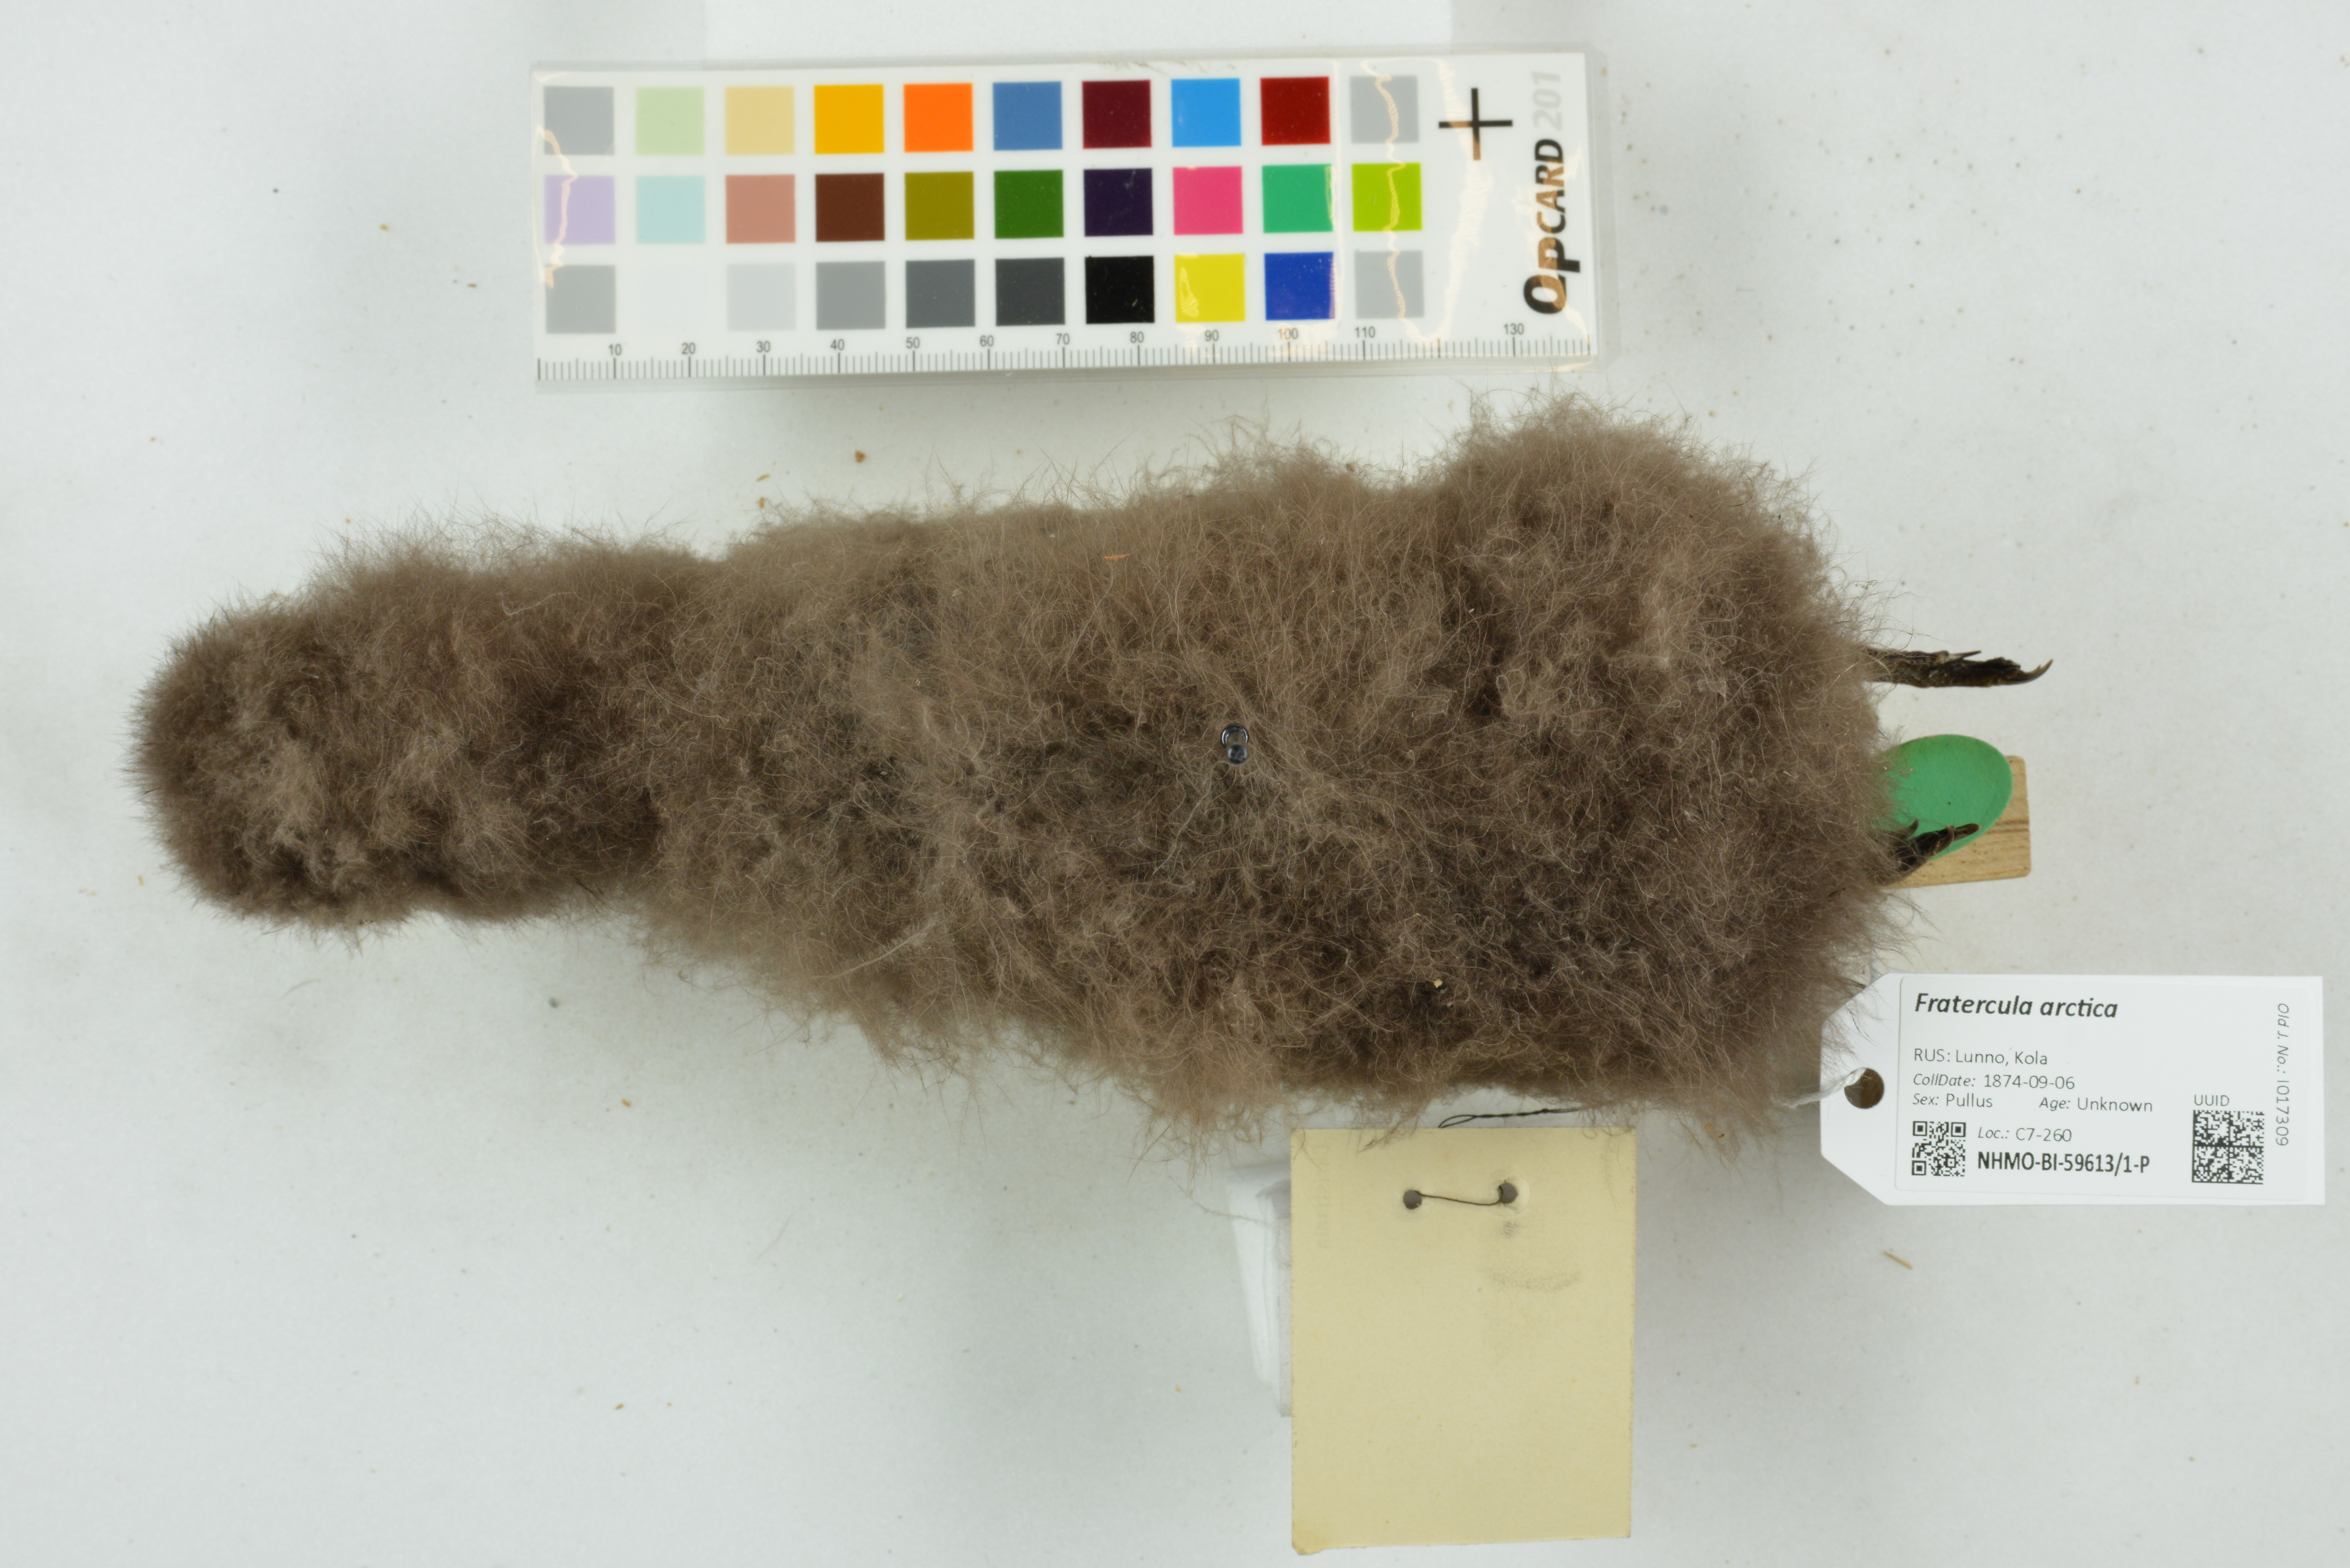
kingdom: Animalia
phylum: Chordata
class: Aves
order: Charadriiformes
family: Alcidae
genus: Fratercula
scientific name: Fratercula arctica
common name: Atlantic puffin
